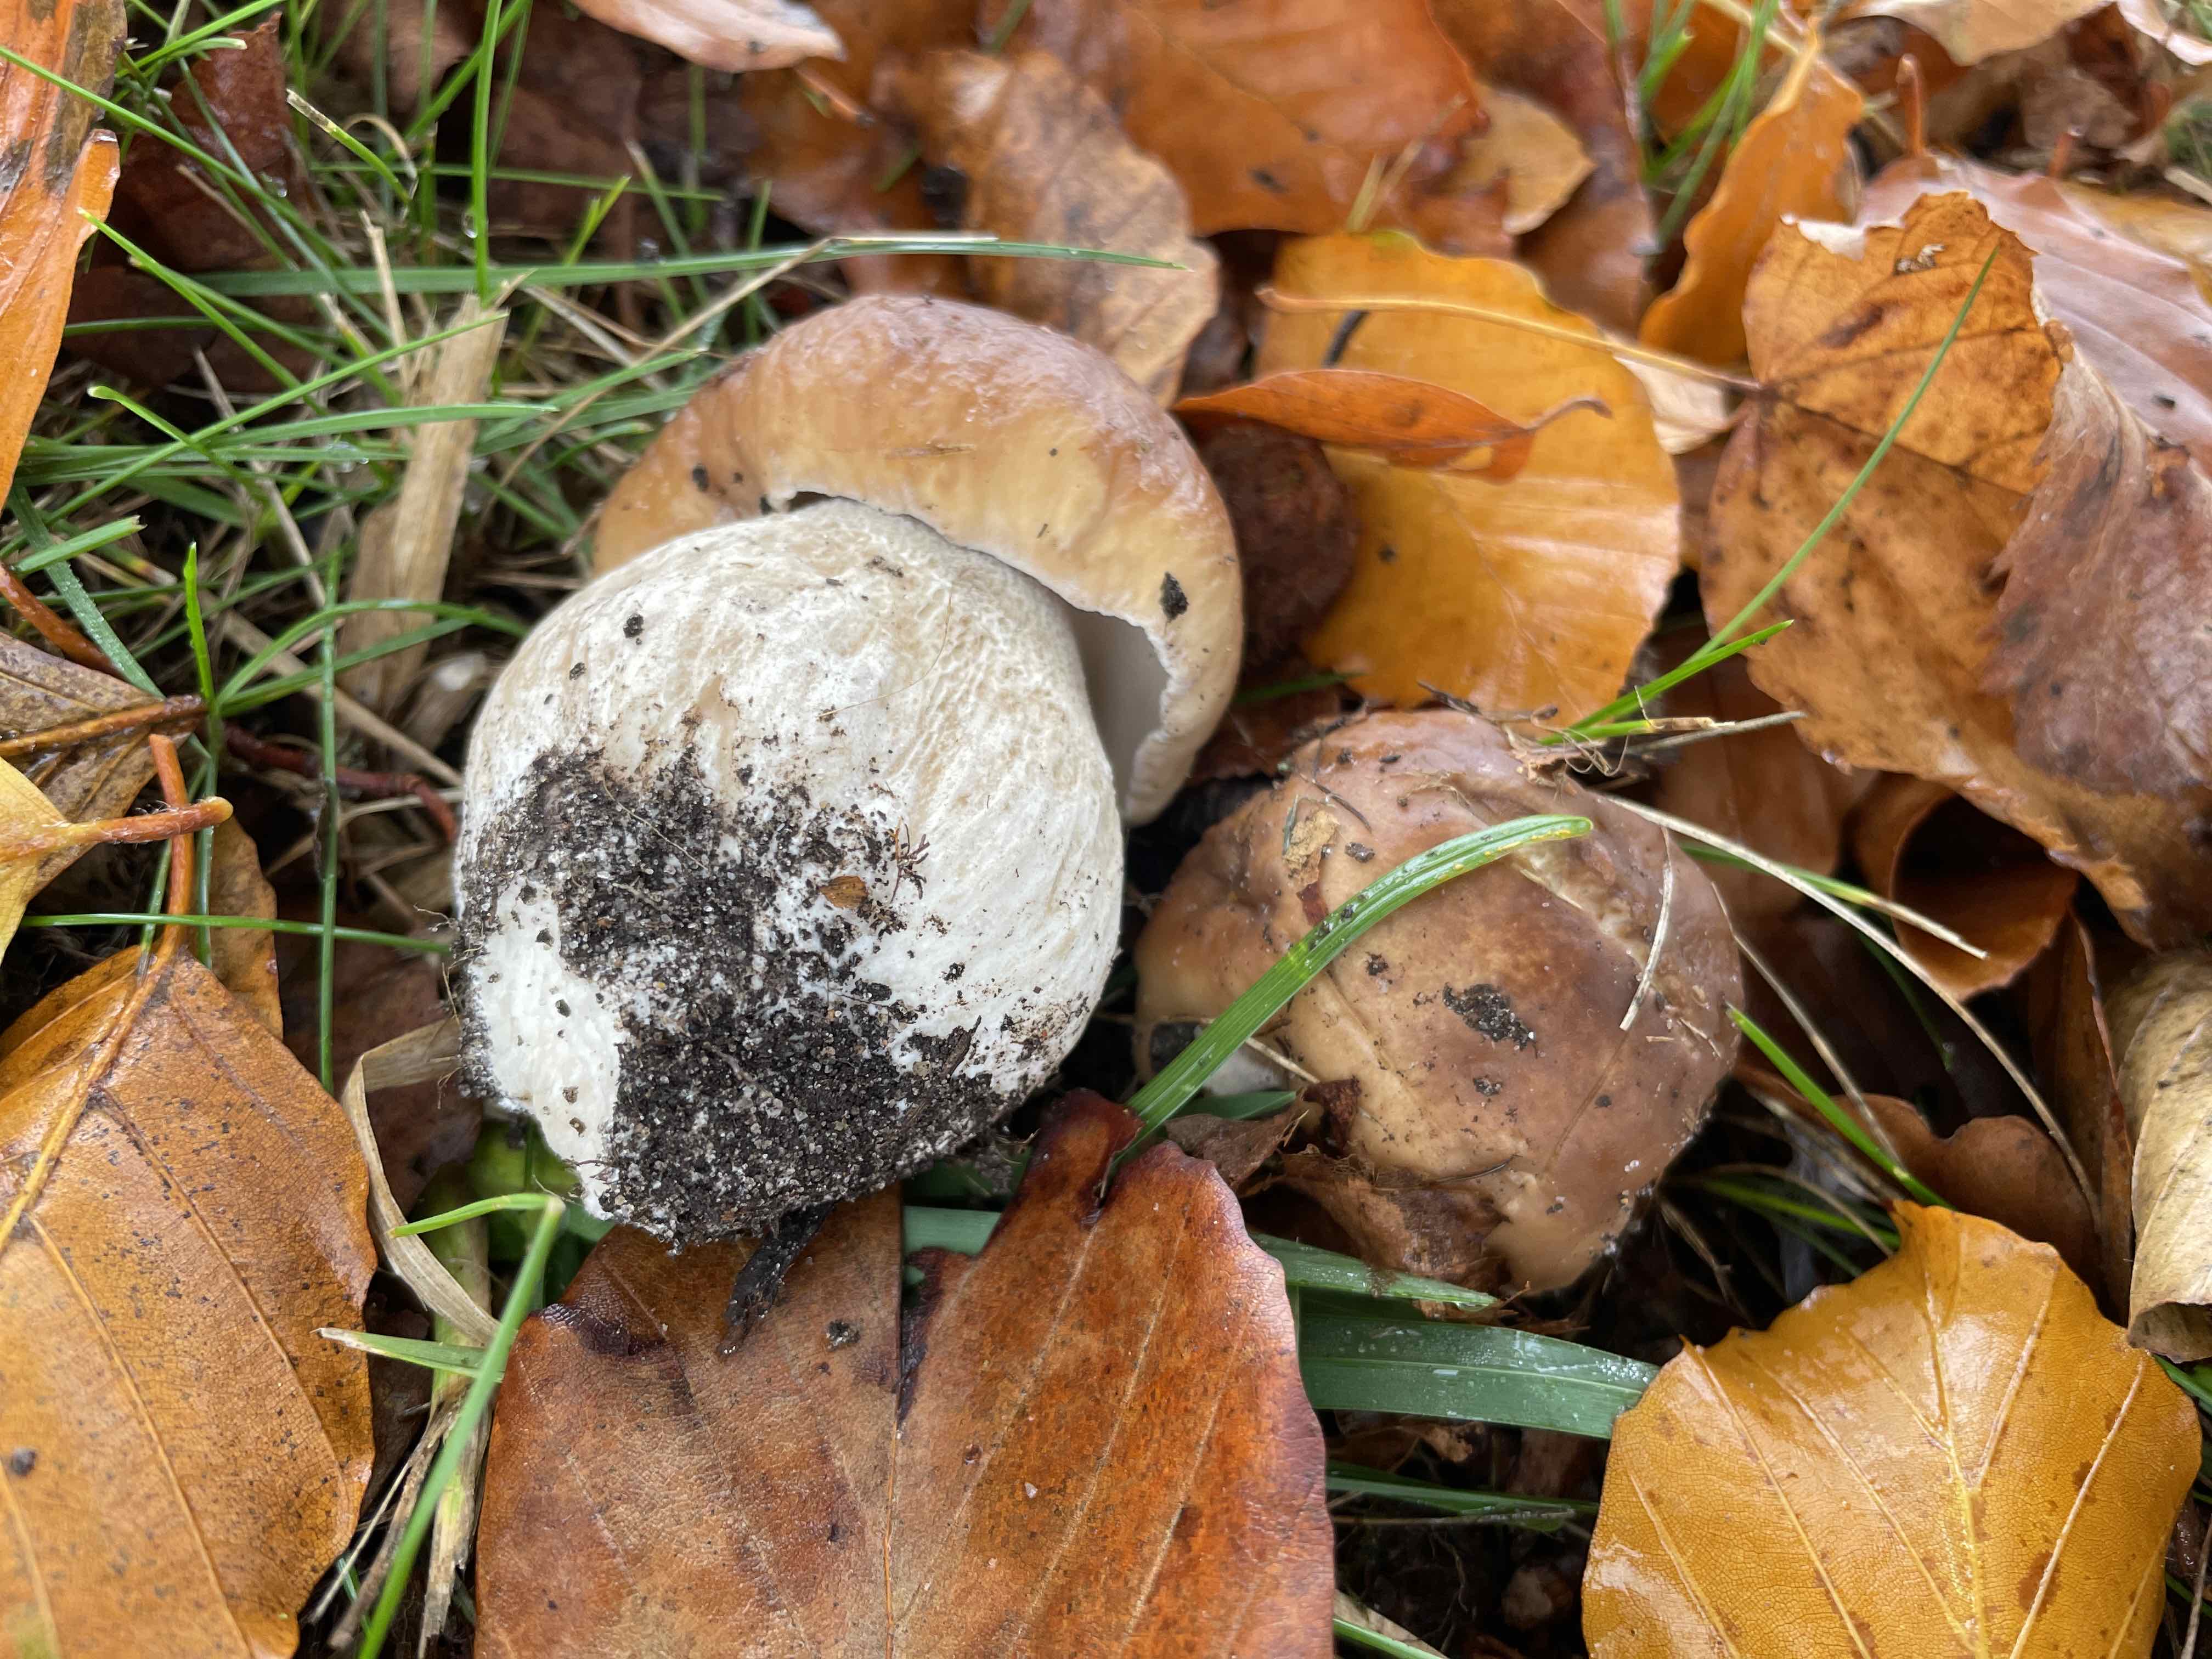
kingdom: Fungi
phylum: Basidiomycota
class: Agaricomycetes
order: Boletales
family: Boletaceae
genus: Boletus
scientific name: Boletus edulis
